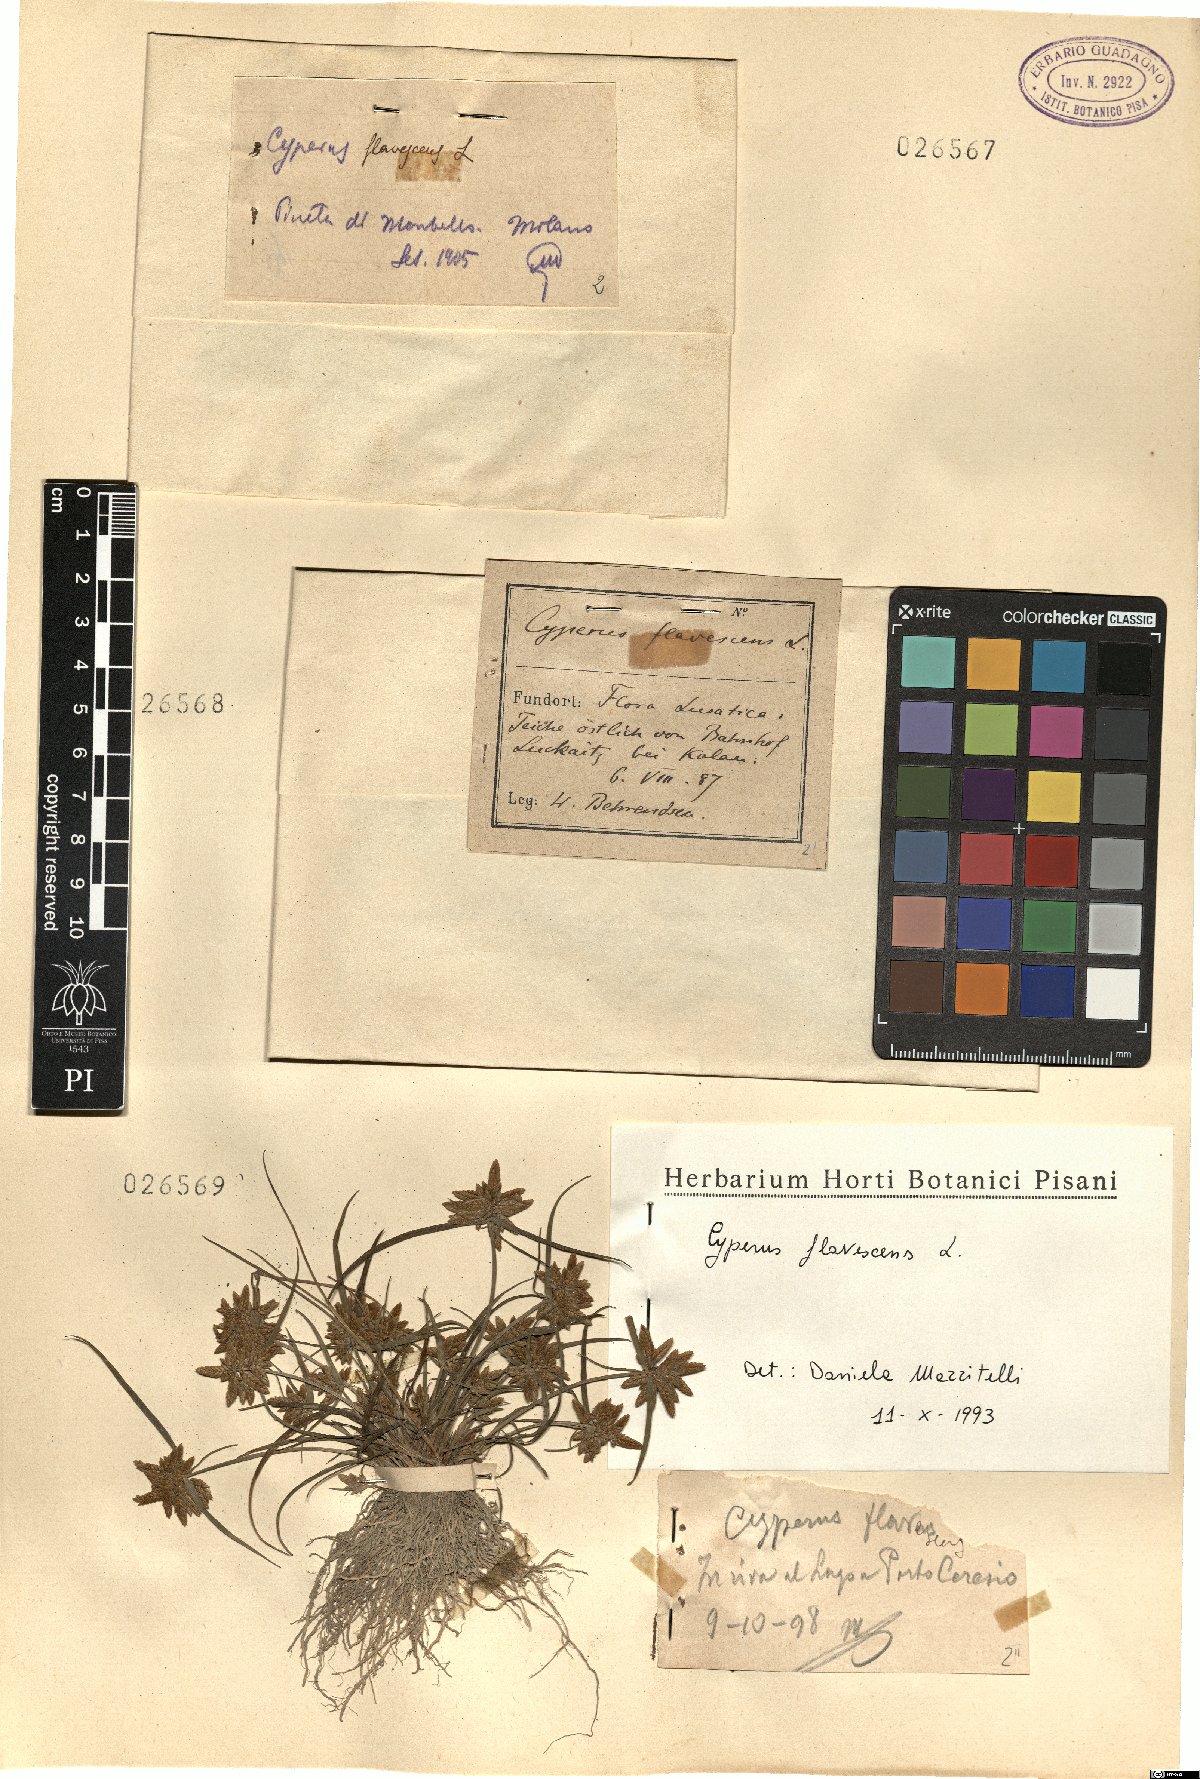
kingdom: Plantae
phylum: Tracheophyta
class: Liliopsida
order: Poales
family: Cyperaceae
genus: Cyperus
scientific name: Cyperus fuscus
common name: Brown galingale
